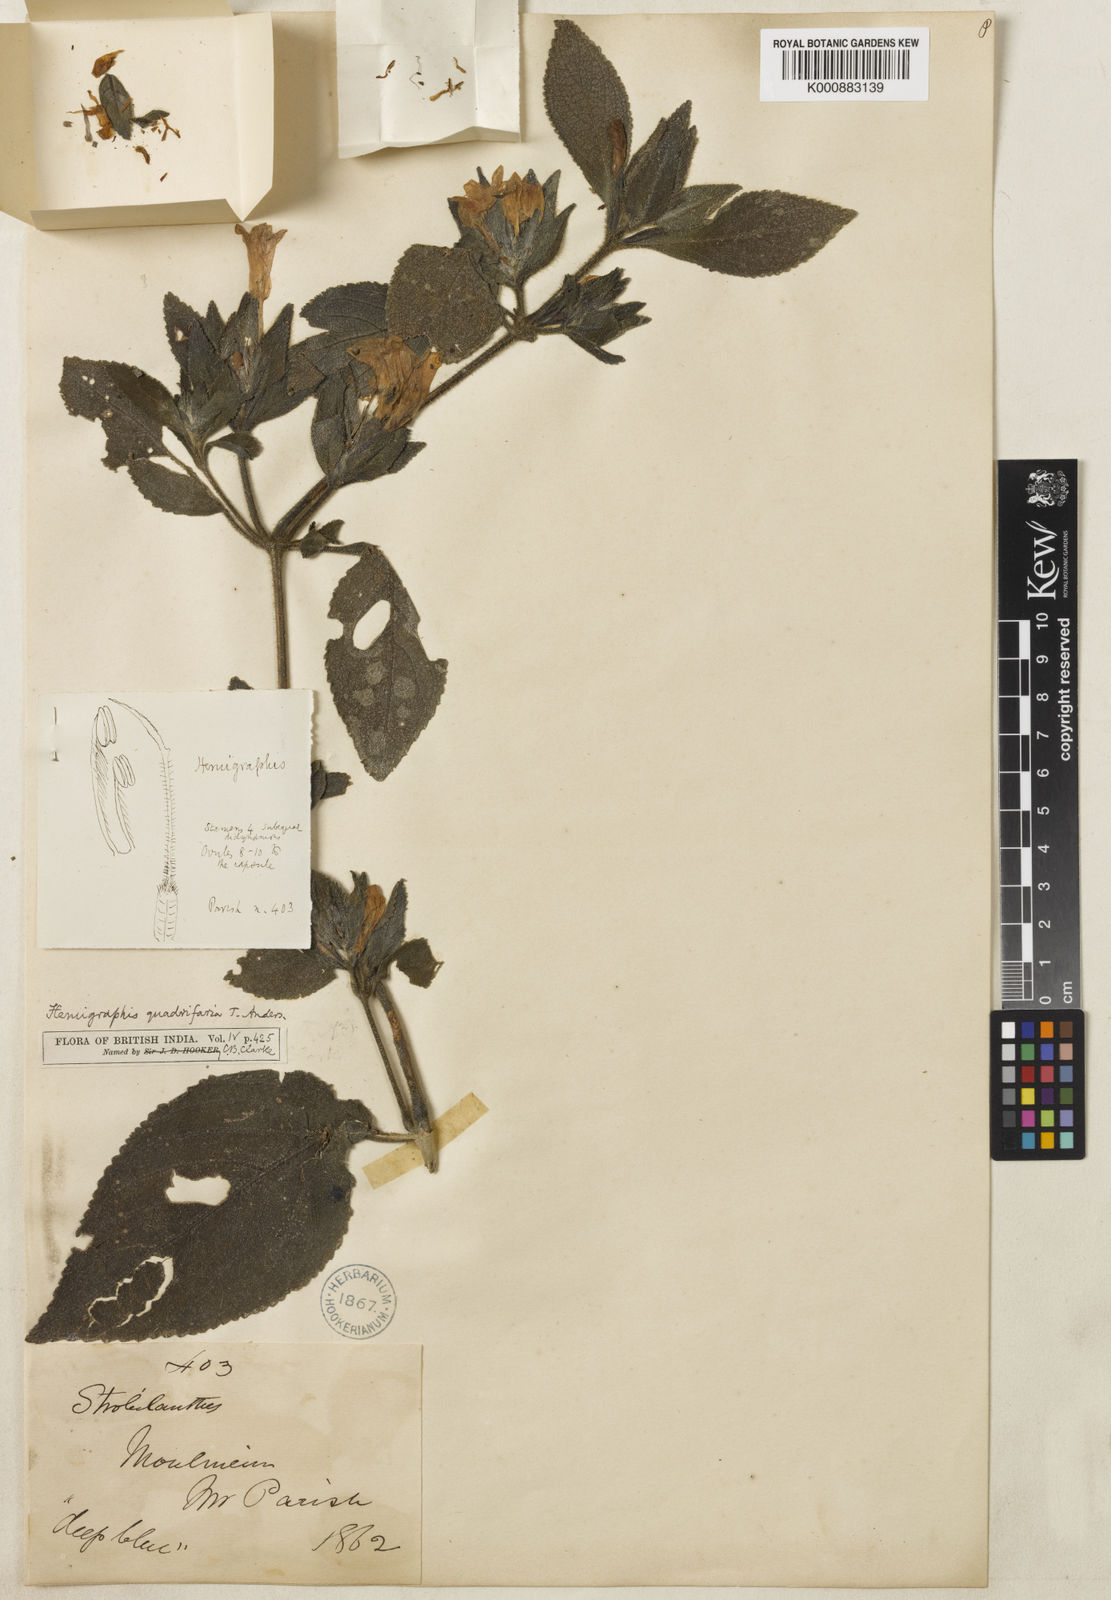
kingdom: Plantae
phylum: Tracheophyta
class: Magnoliopsida
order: Lamiales
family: Acanthaceae
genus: Strobilanthes
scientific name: Strobilanthes quadrifaria
